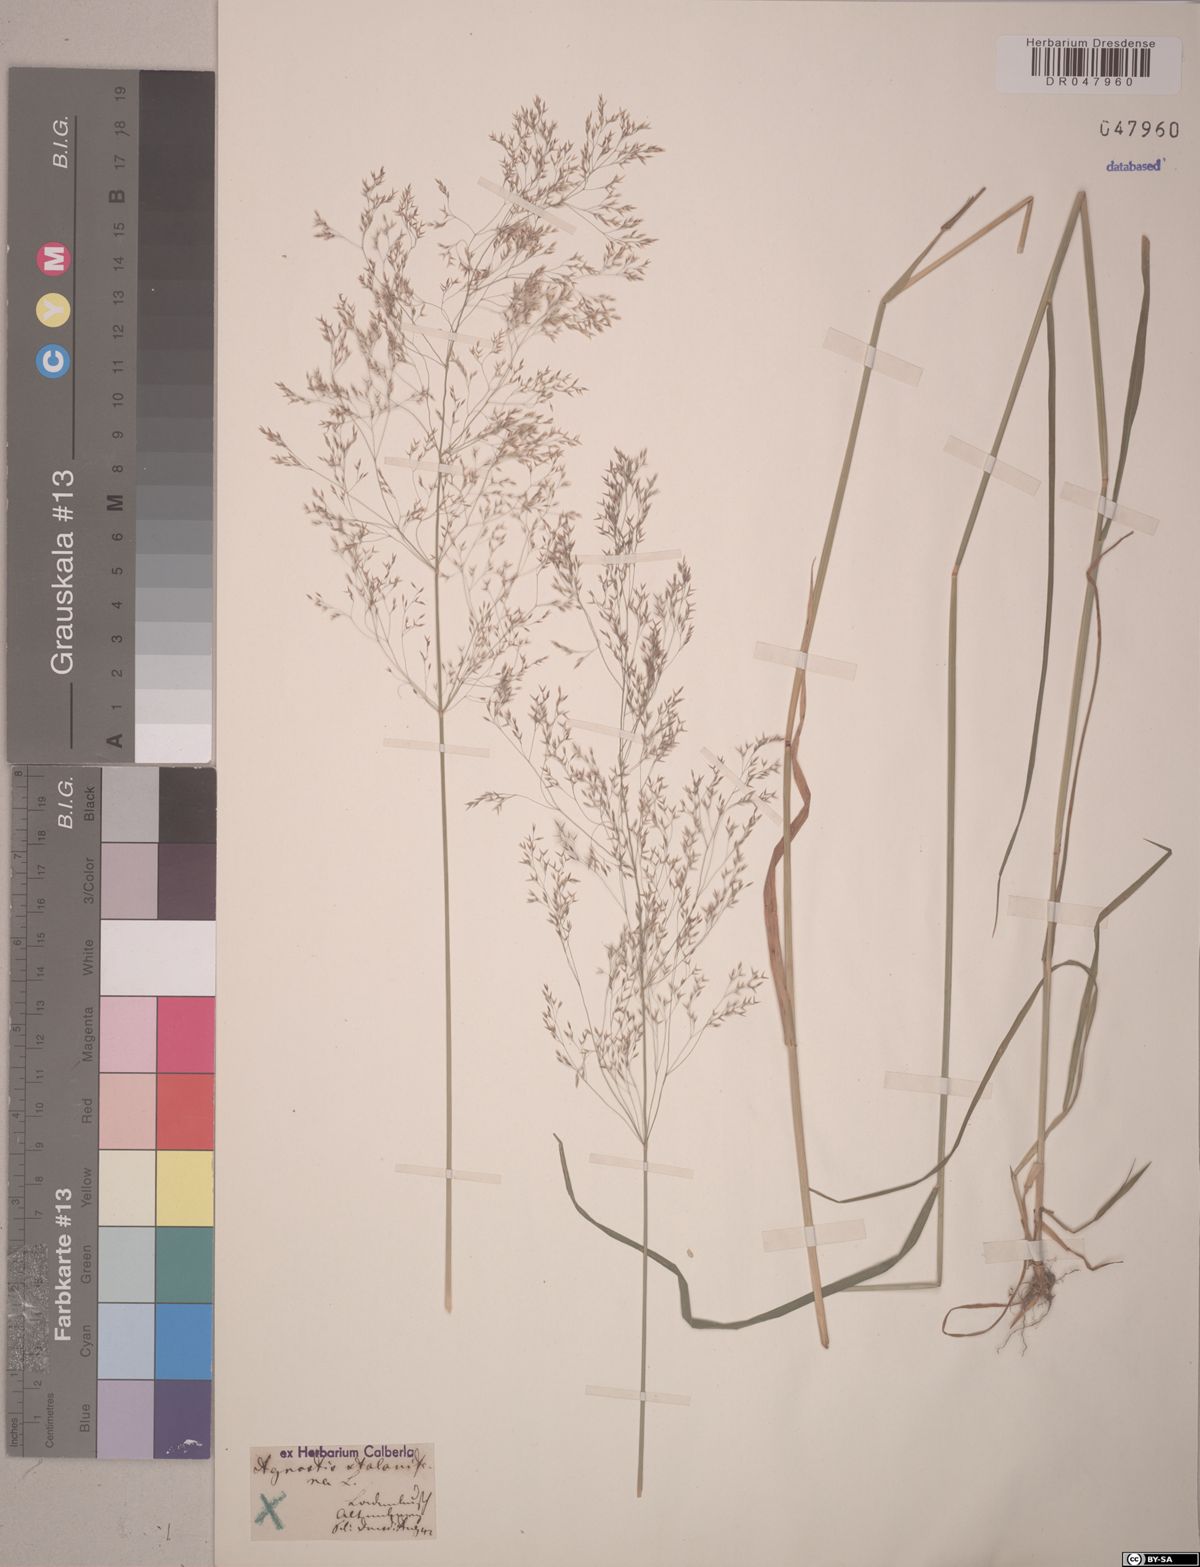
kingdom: Plantae
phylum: Tracheophyta
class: Liliopsida
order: Poales
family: Poaceae
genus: Agrostis
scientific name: Agrostis stolonifera
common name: Creeping bentgrass
